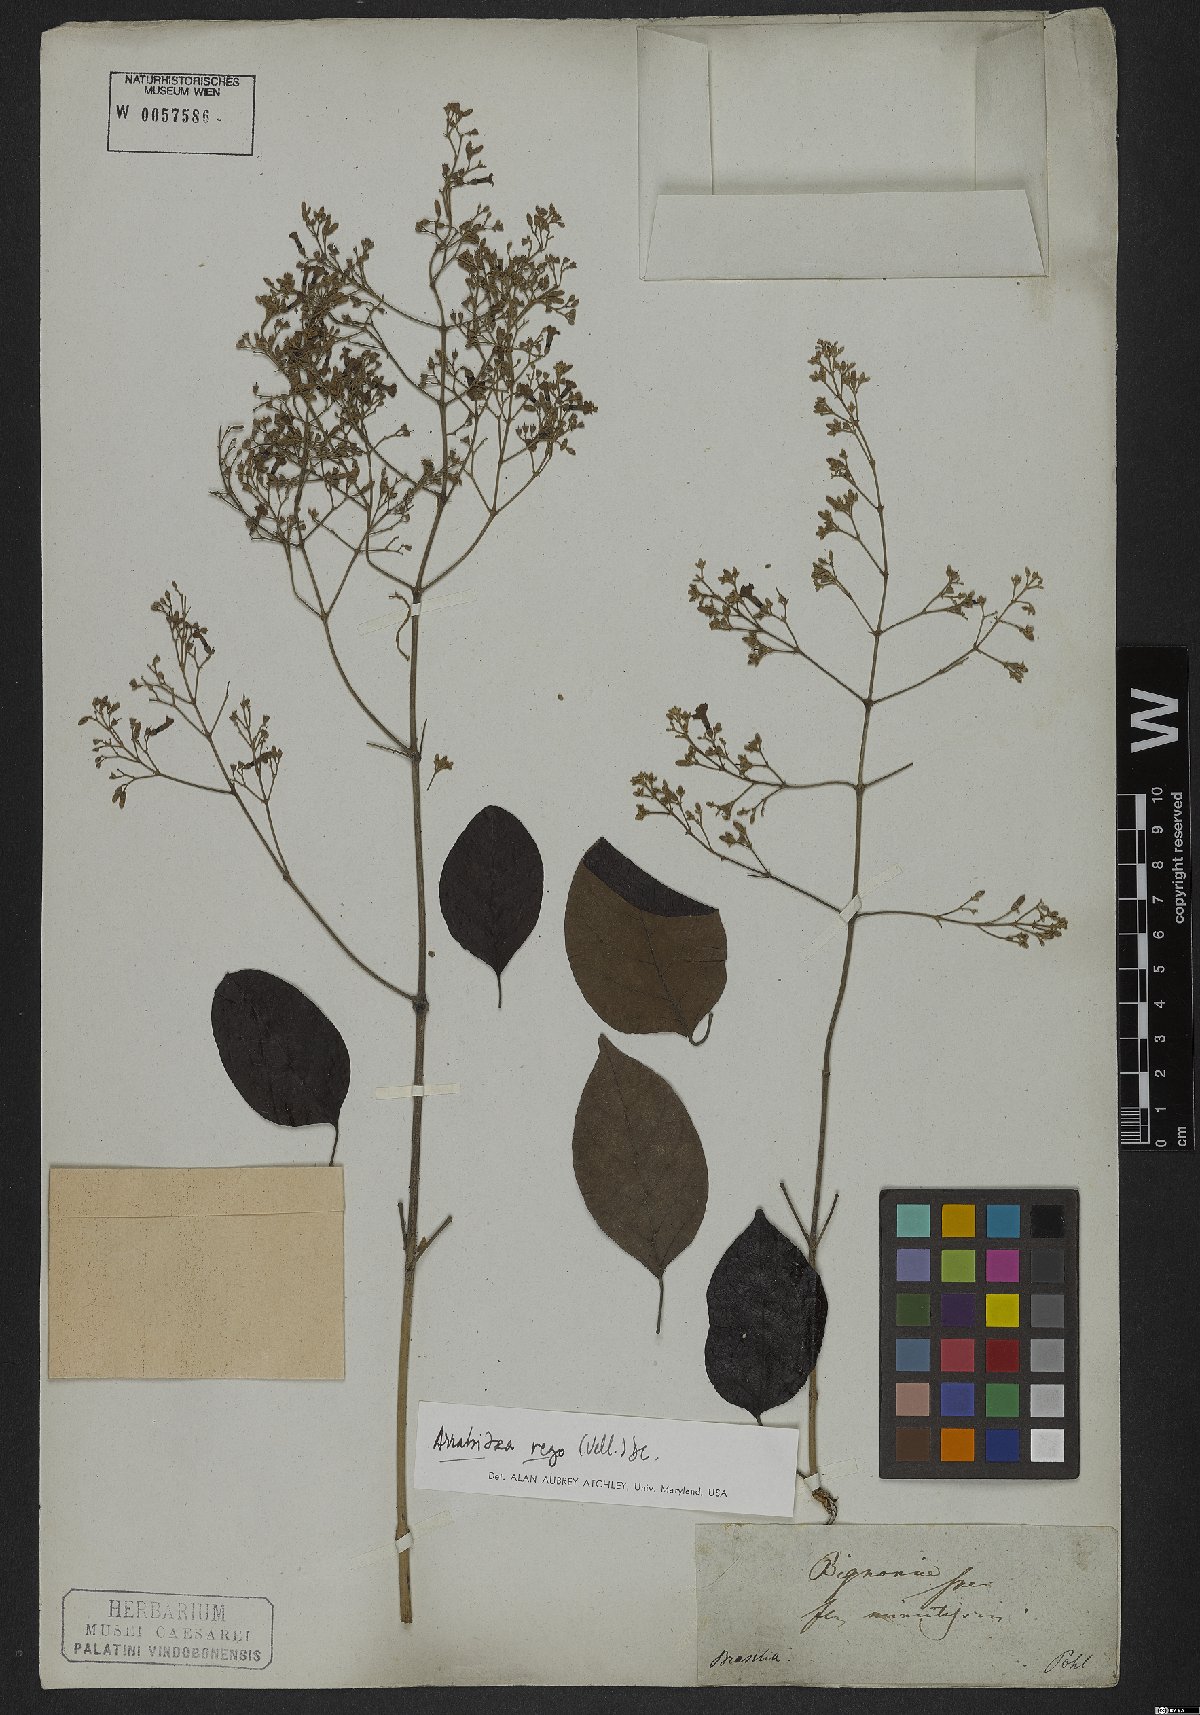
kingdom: Plantae
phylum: Tracheophyta
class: Magnoliopsida
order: Lamiales
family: Bignoniaceae
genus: Fridericia
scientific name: Fridericia rego
